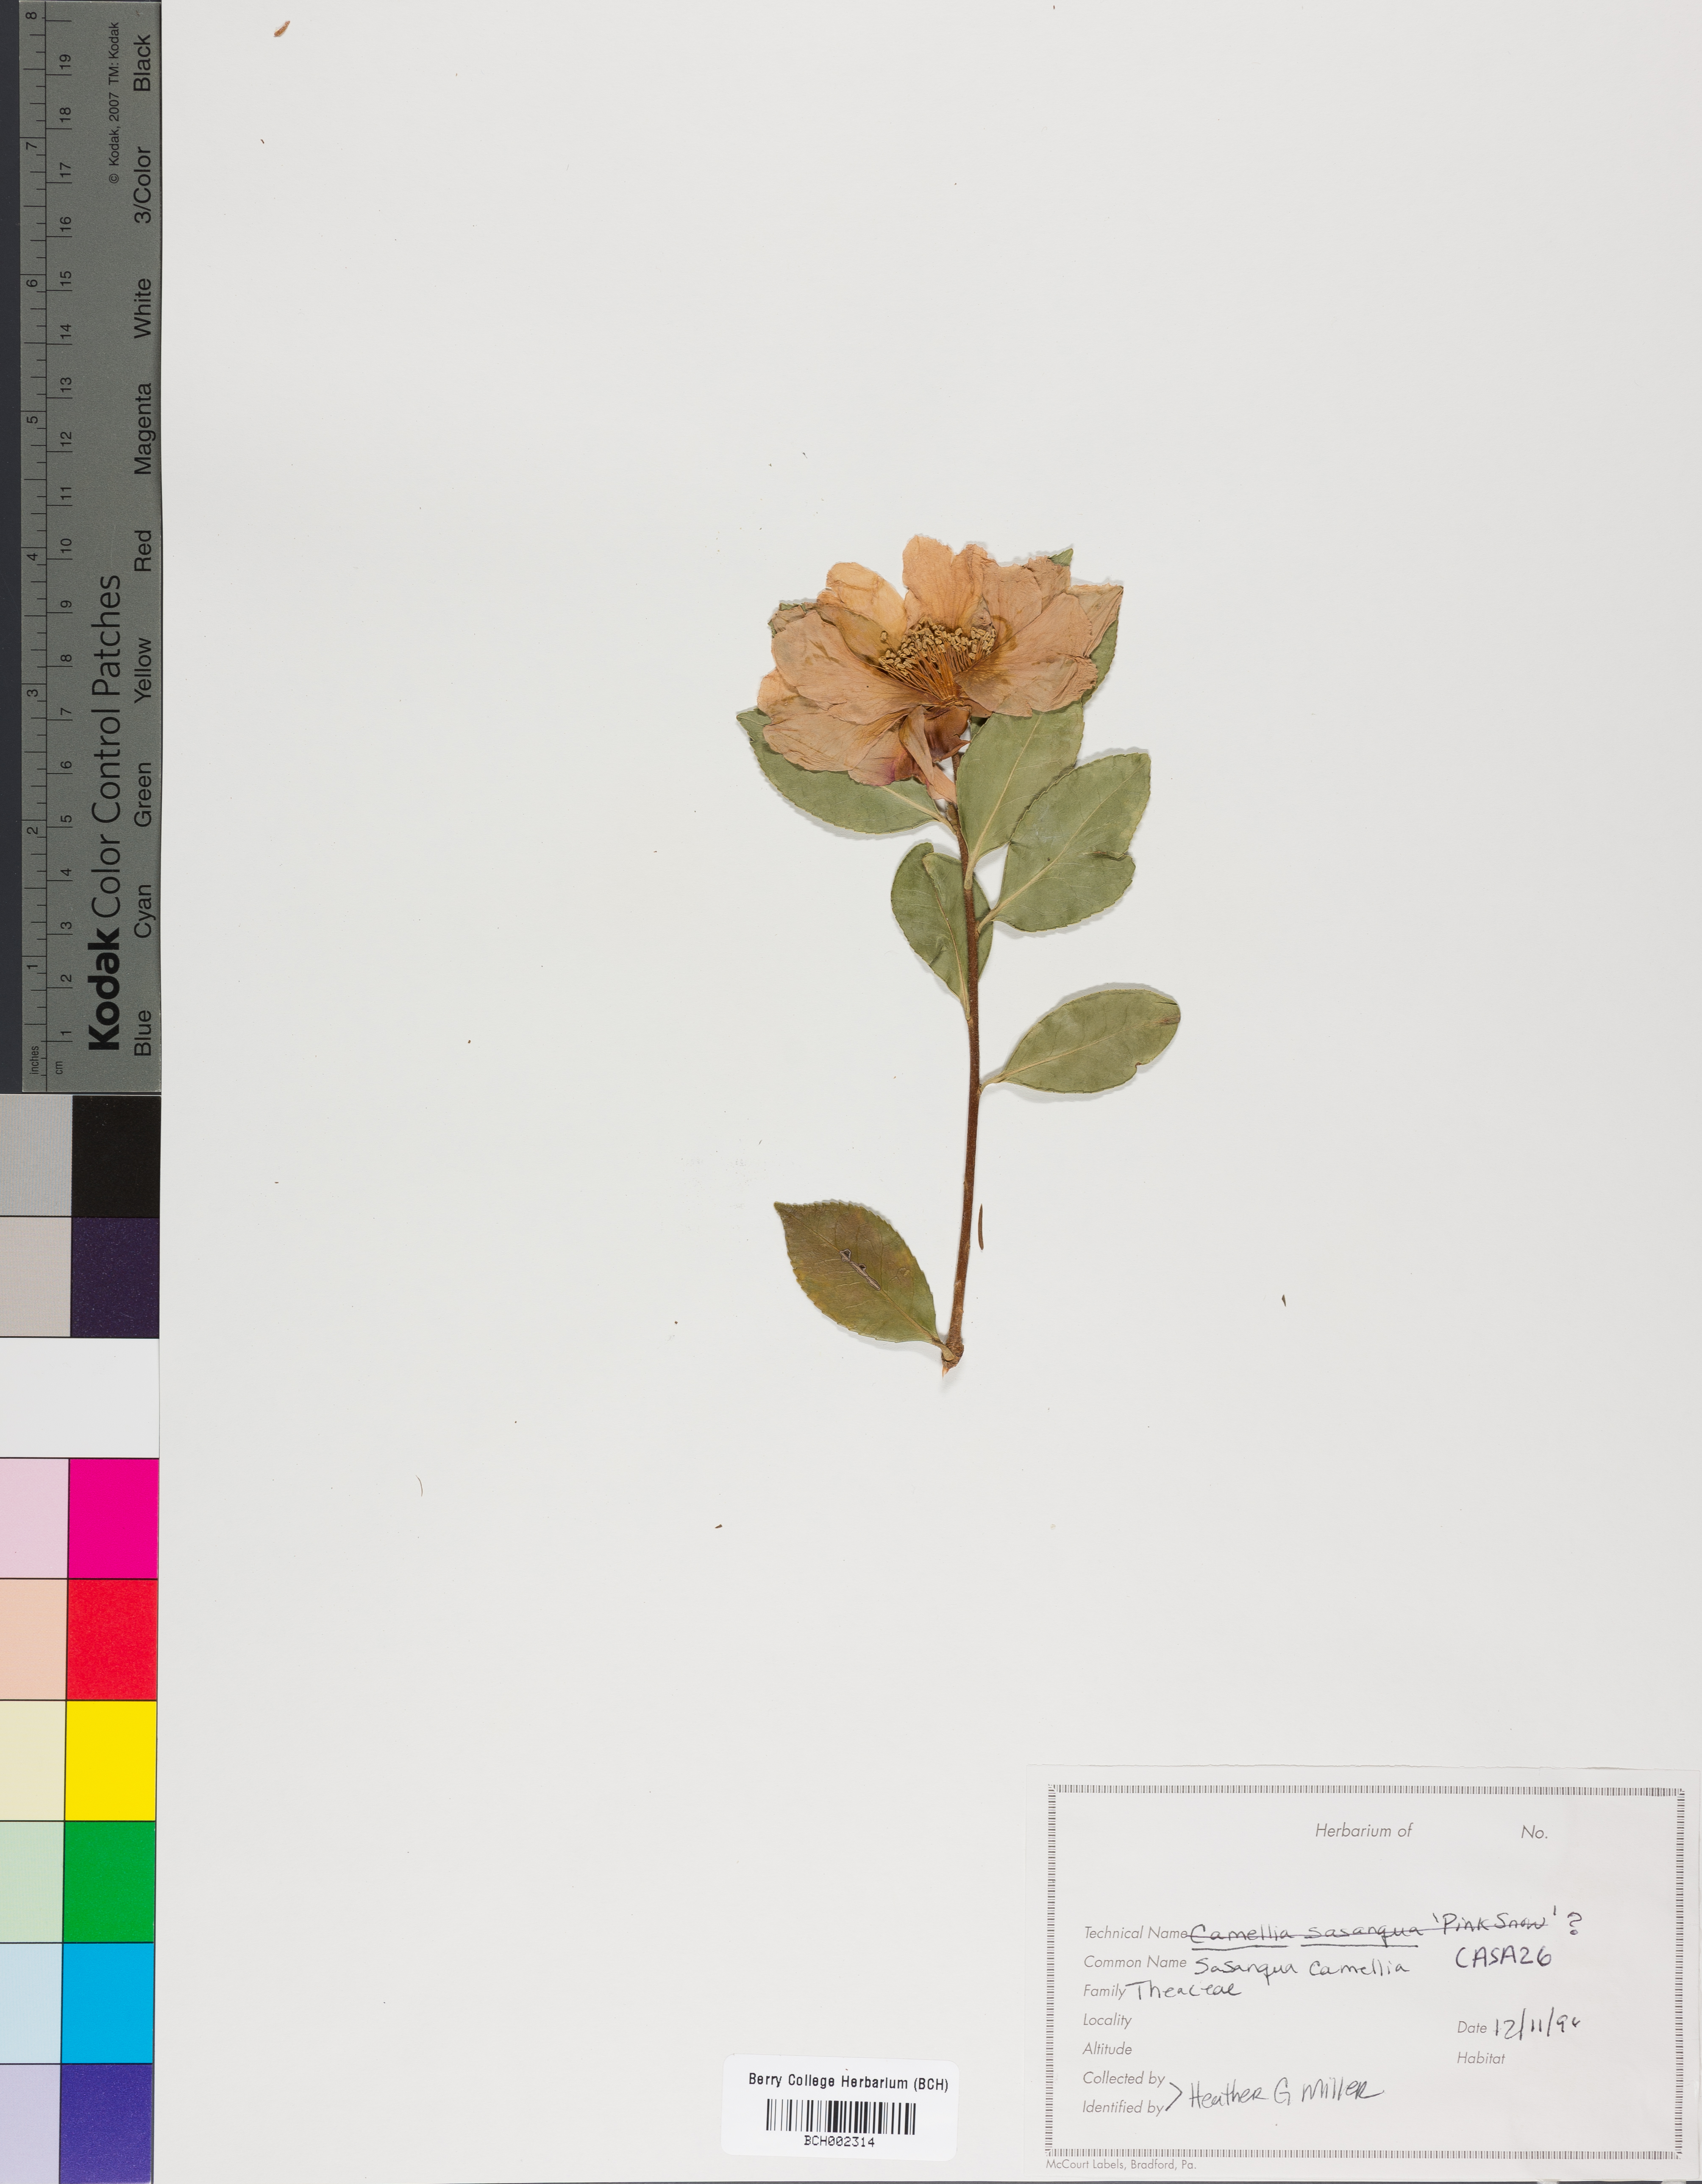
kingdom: Plantae
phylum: Tracheophyta
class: Magnoliopsida
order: Ericales
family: Theaceae
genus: Camellia
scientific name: Camellia sasanqua
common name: Sasanqua camellia
